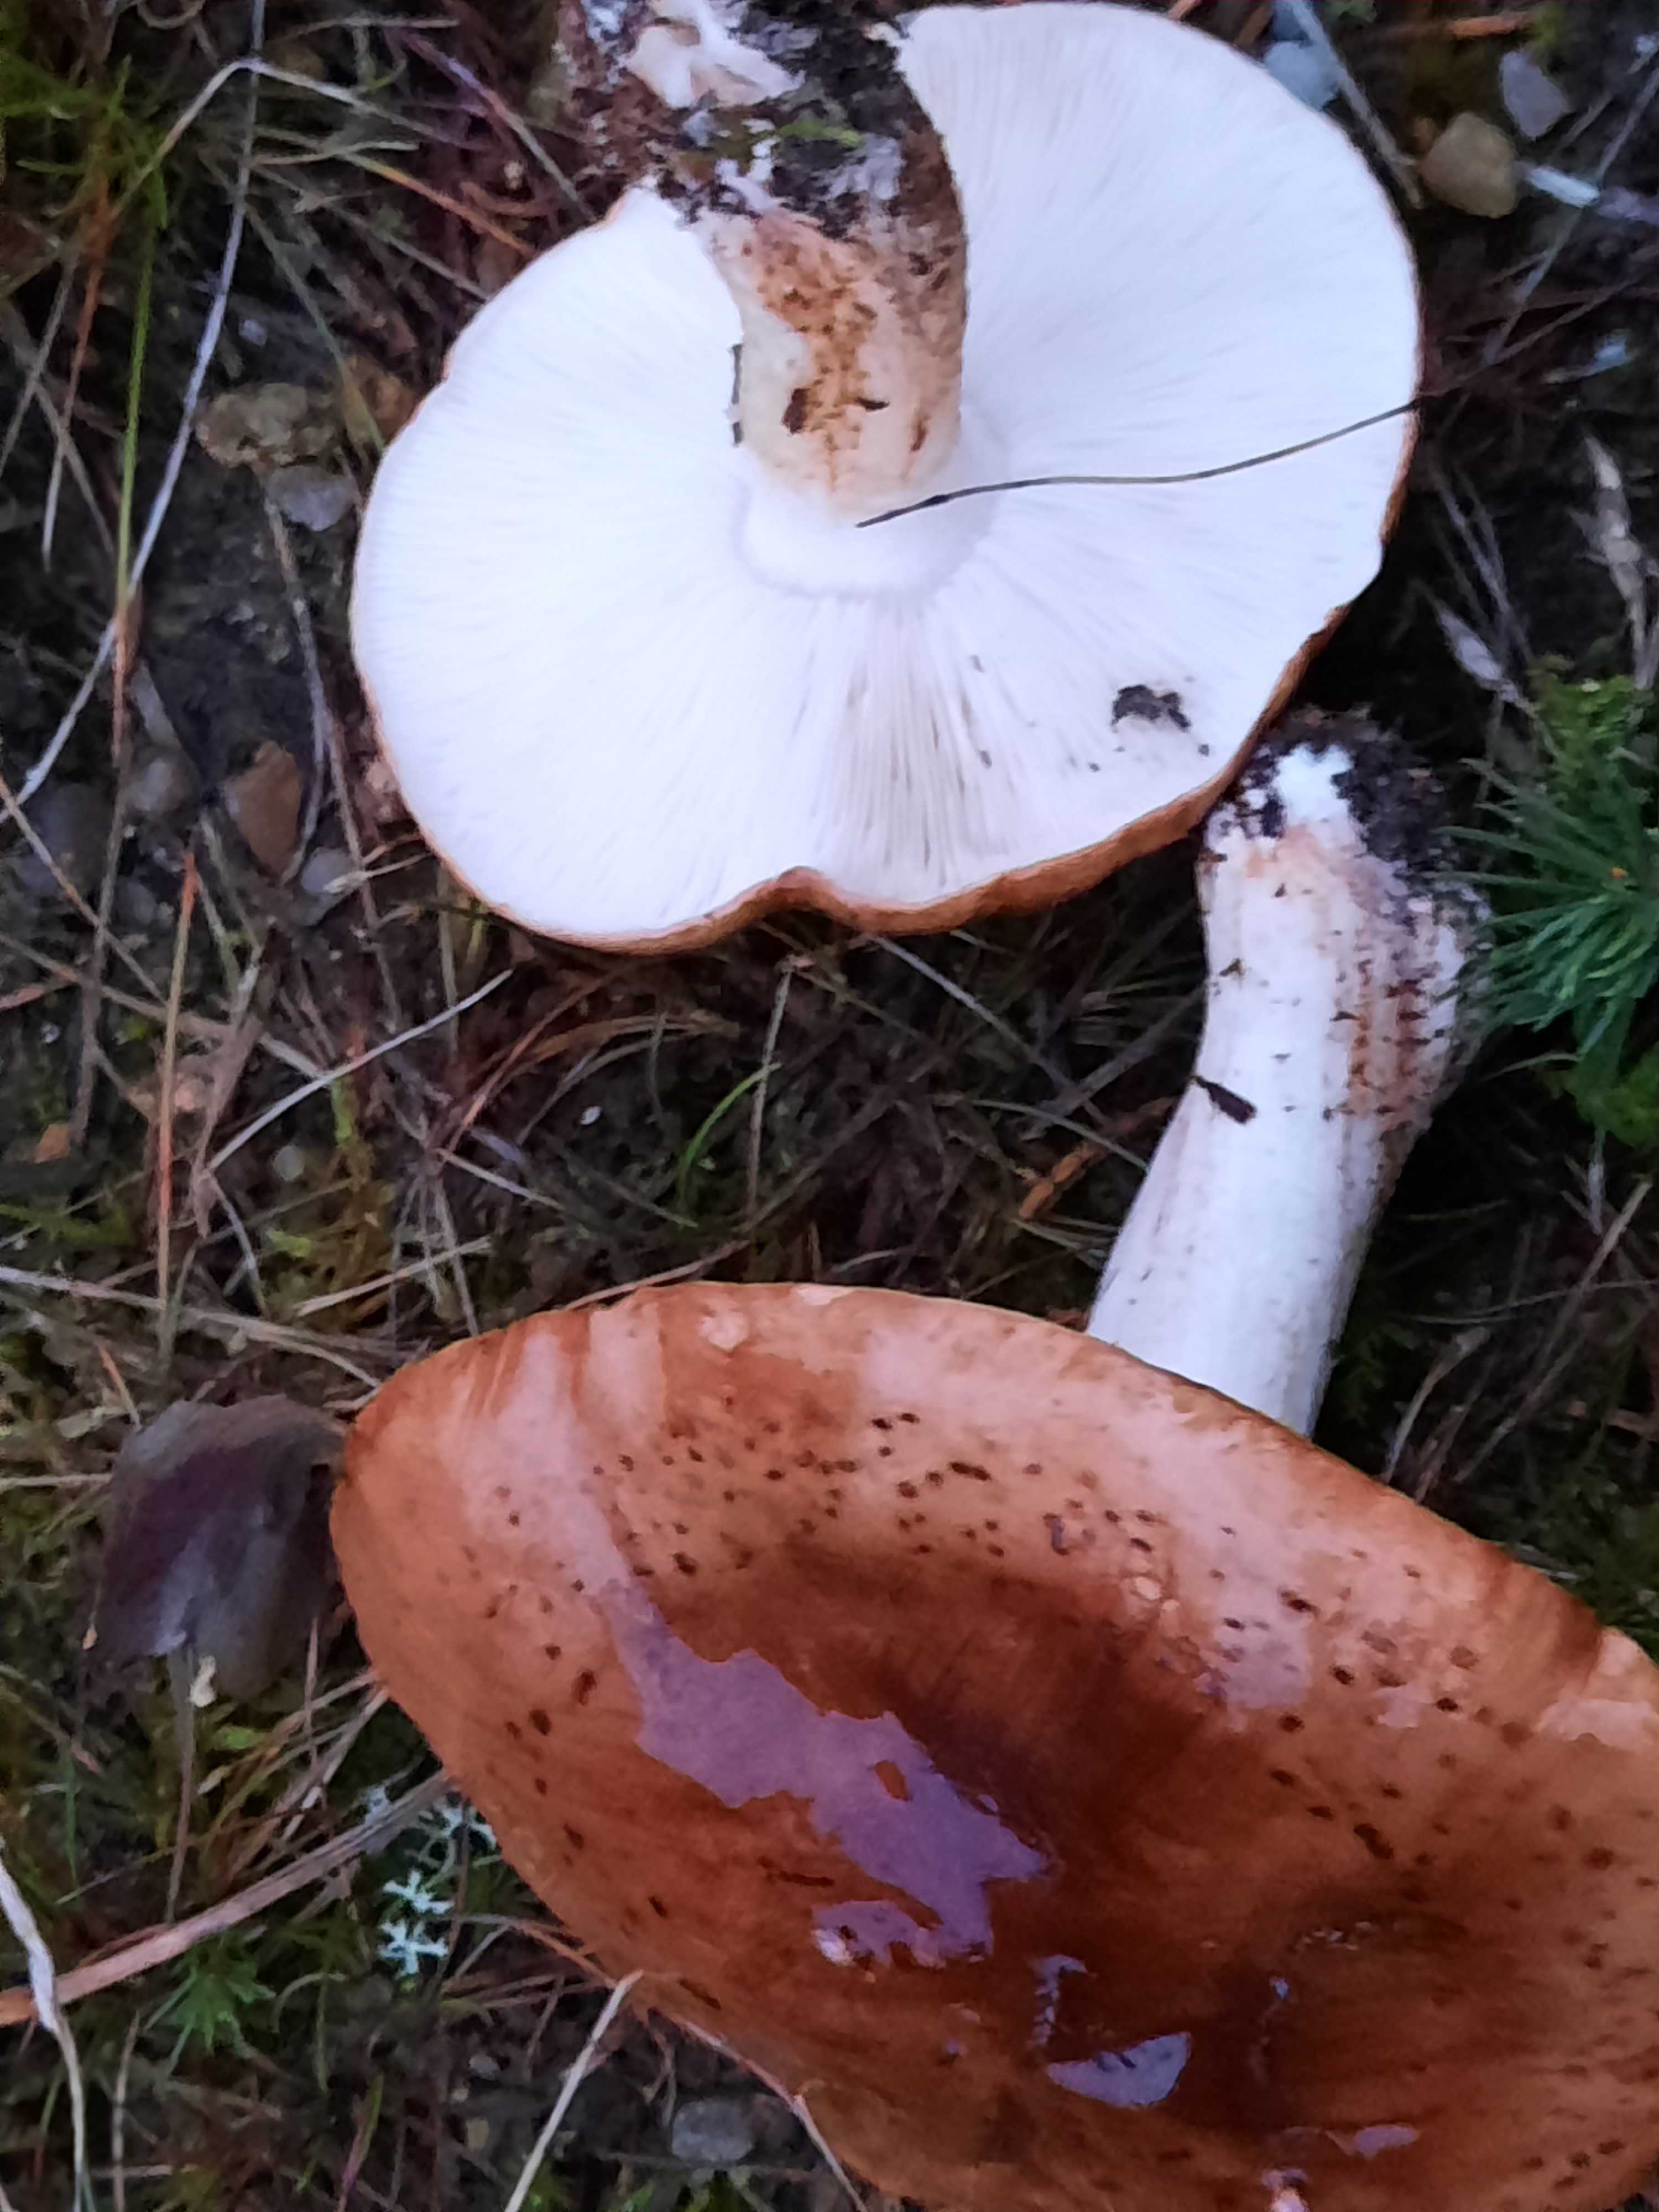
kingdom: Fungi
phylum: Basidiomycota
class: Agaricomycetes
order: Agaricales
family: Tricholomataceae
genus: Tricholoma
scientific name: Tricholoma pessundatum
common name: dråbeplettet ridderhat
